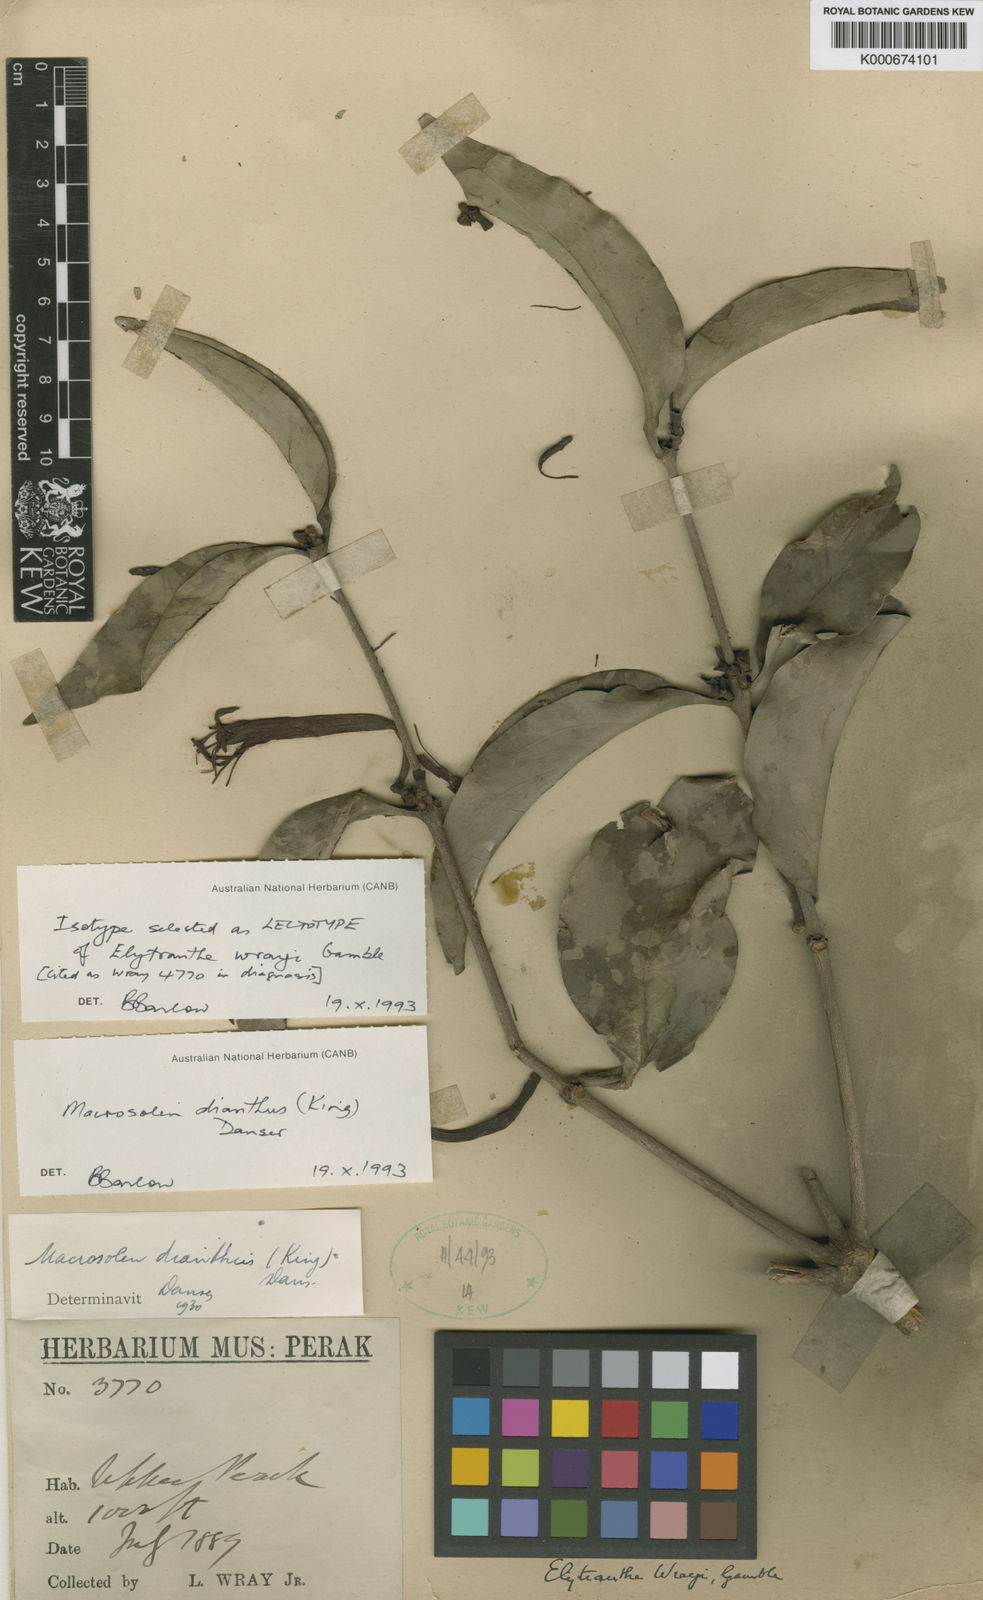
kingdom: Plantae
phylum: Tracheophyta
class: Magnoliopsida
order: Santalales
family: Loranthaceae
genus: Macrosolen
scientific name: Macrosolen dianthus
